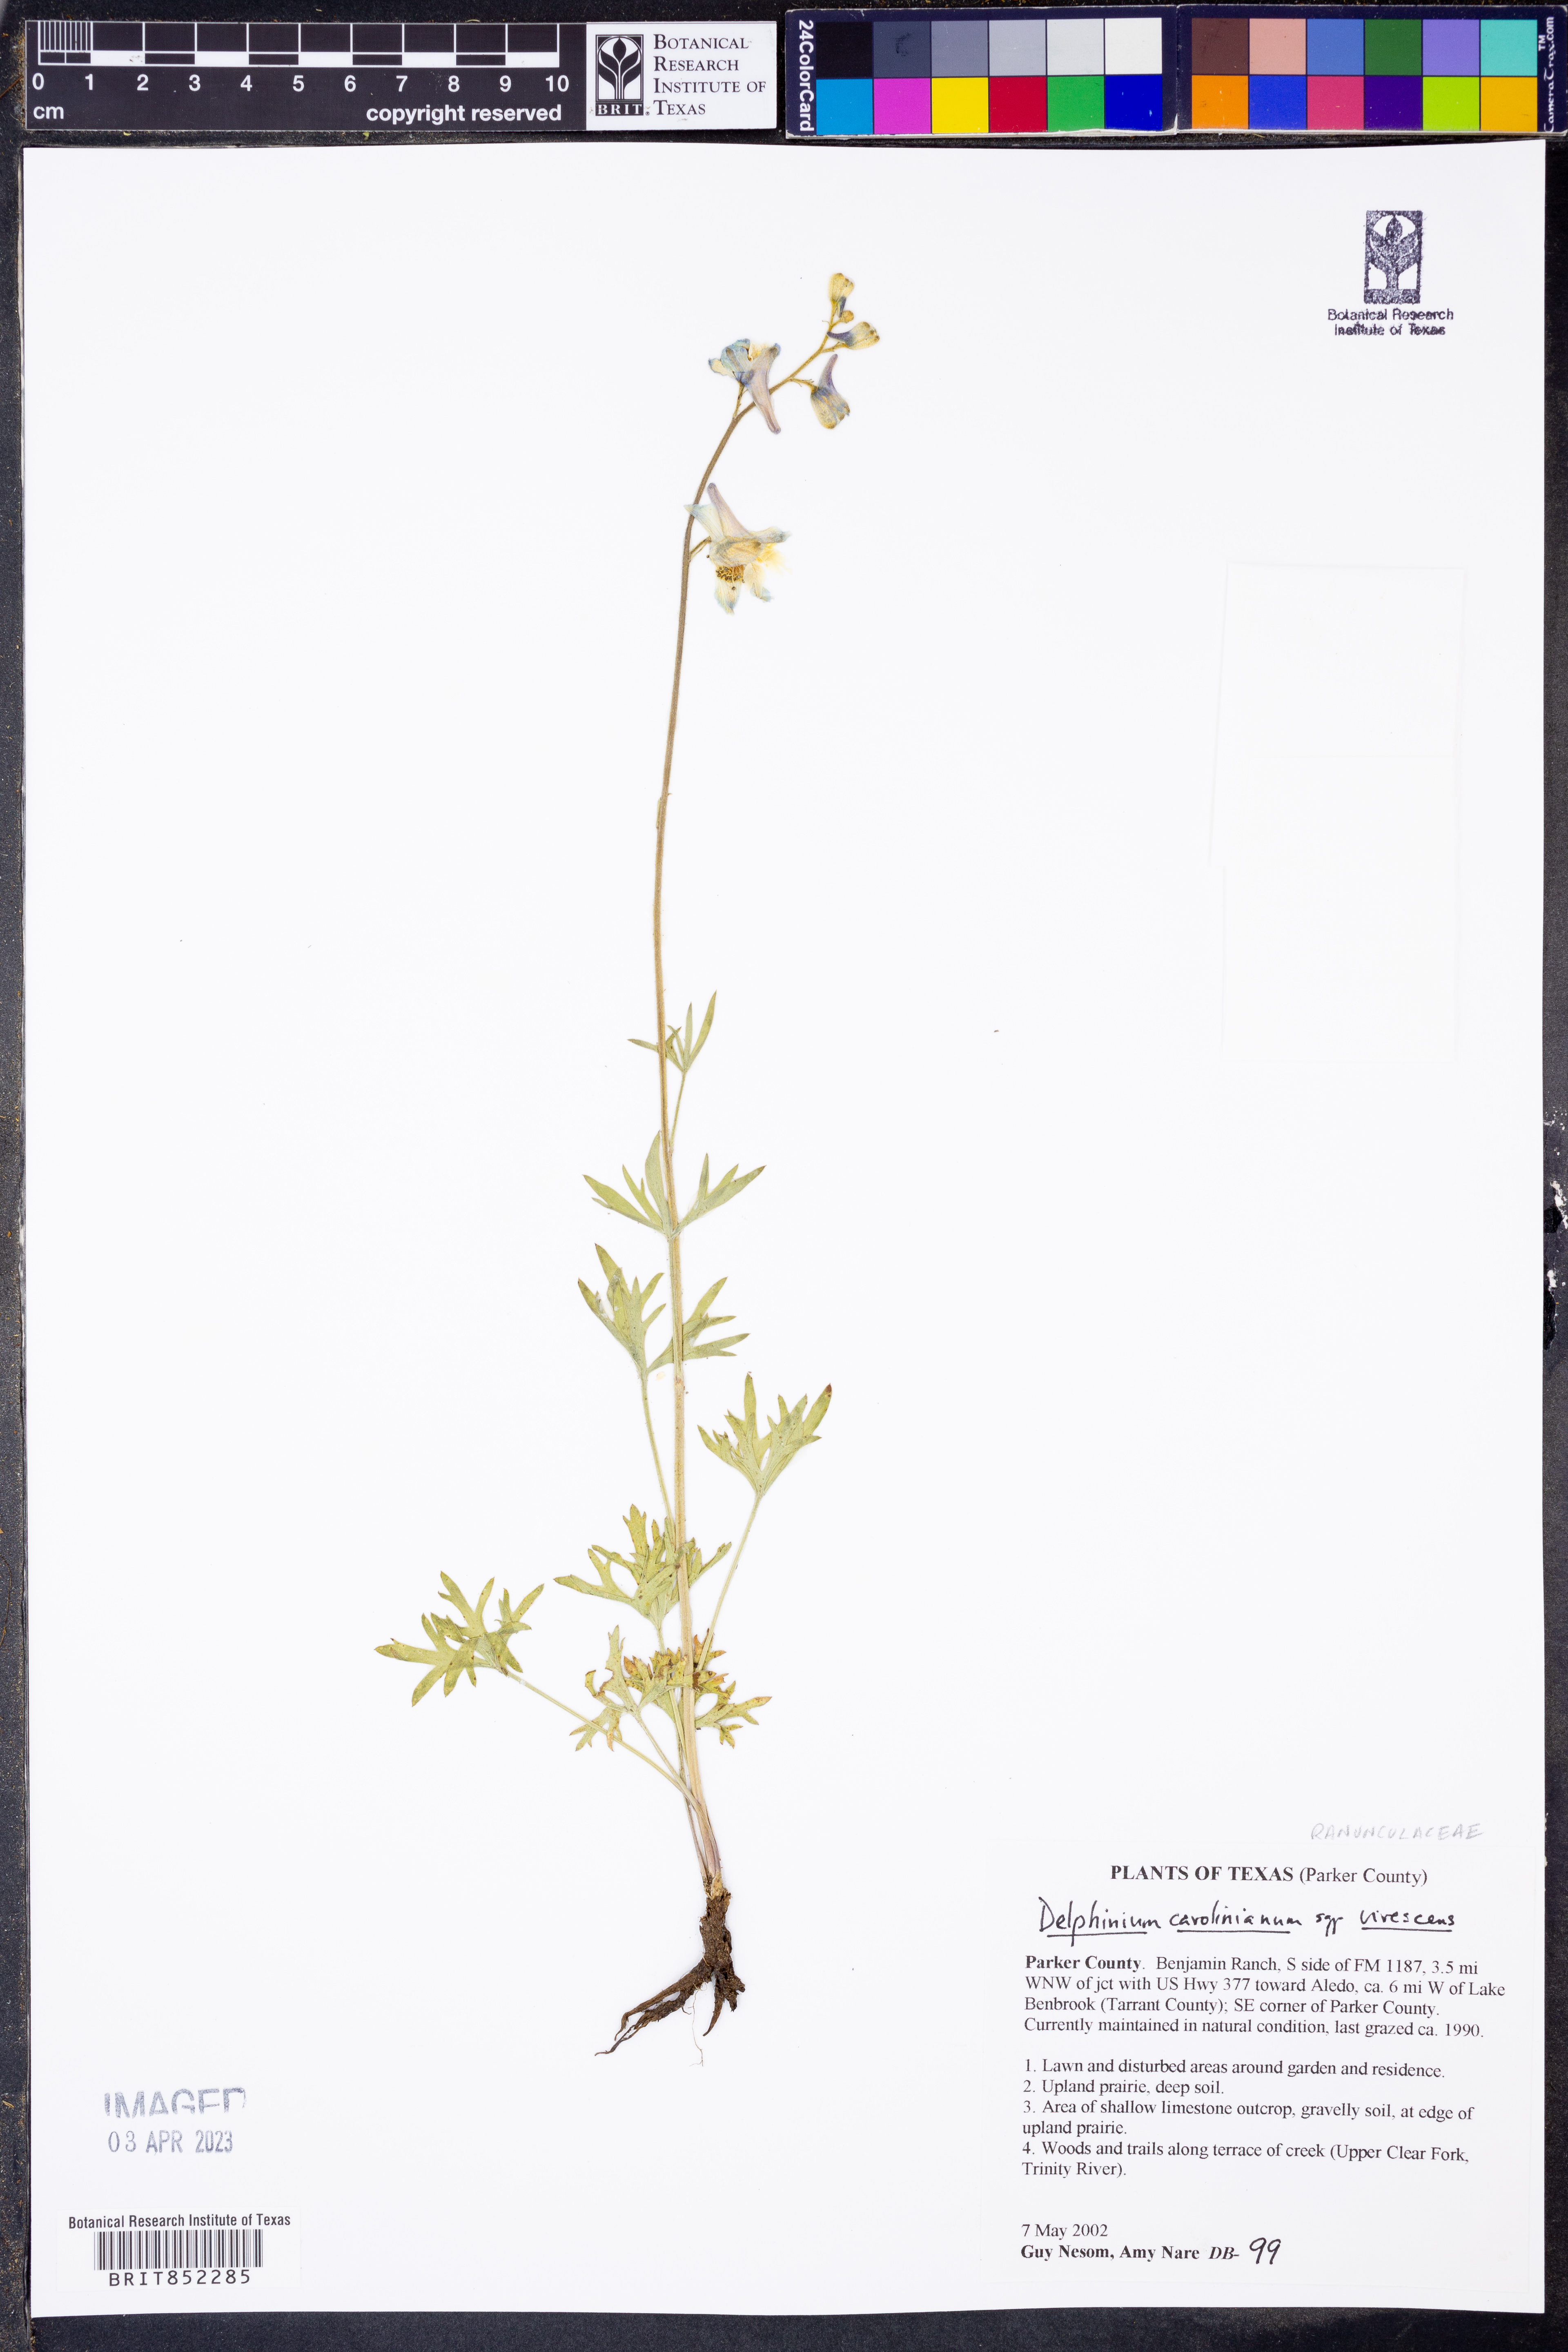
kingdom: Plantae
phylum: Tracheophyta
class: Magnoliopsida
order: Ranunculales
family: Ranunculaceae
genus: Delphinium
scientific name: Delphinium carolinianum
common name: Carolina larkspur
